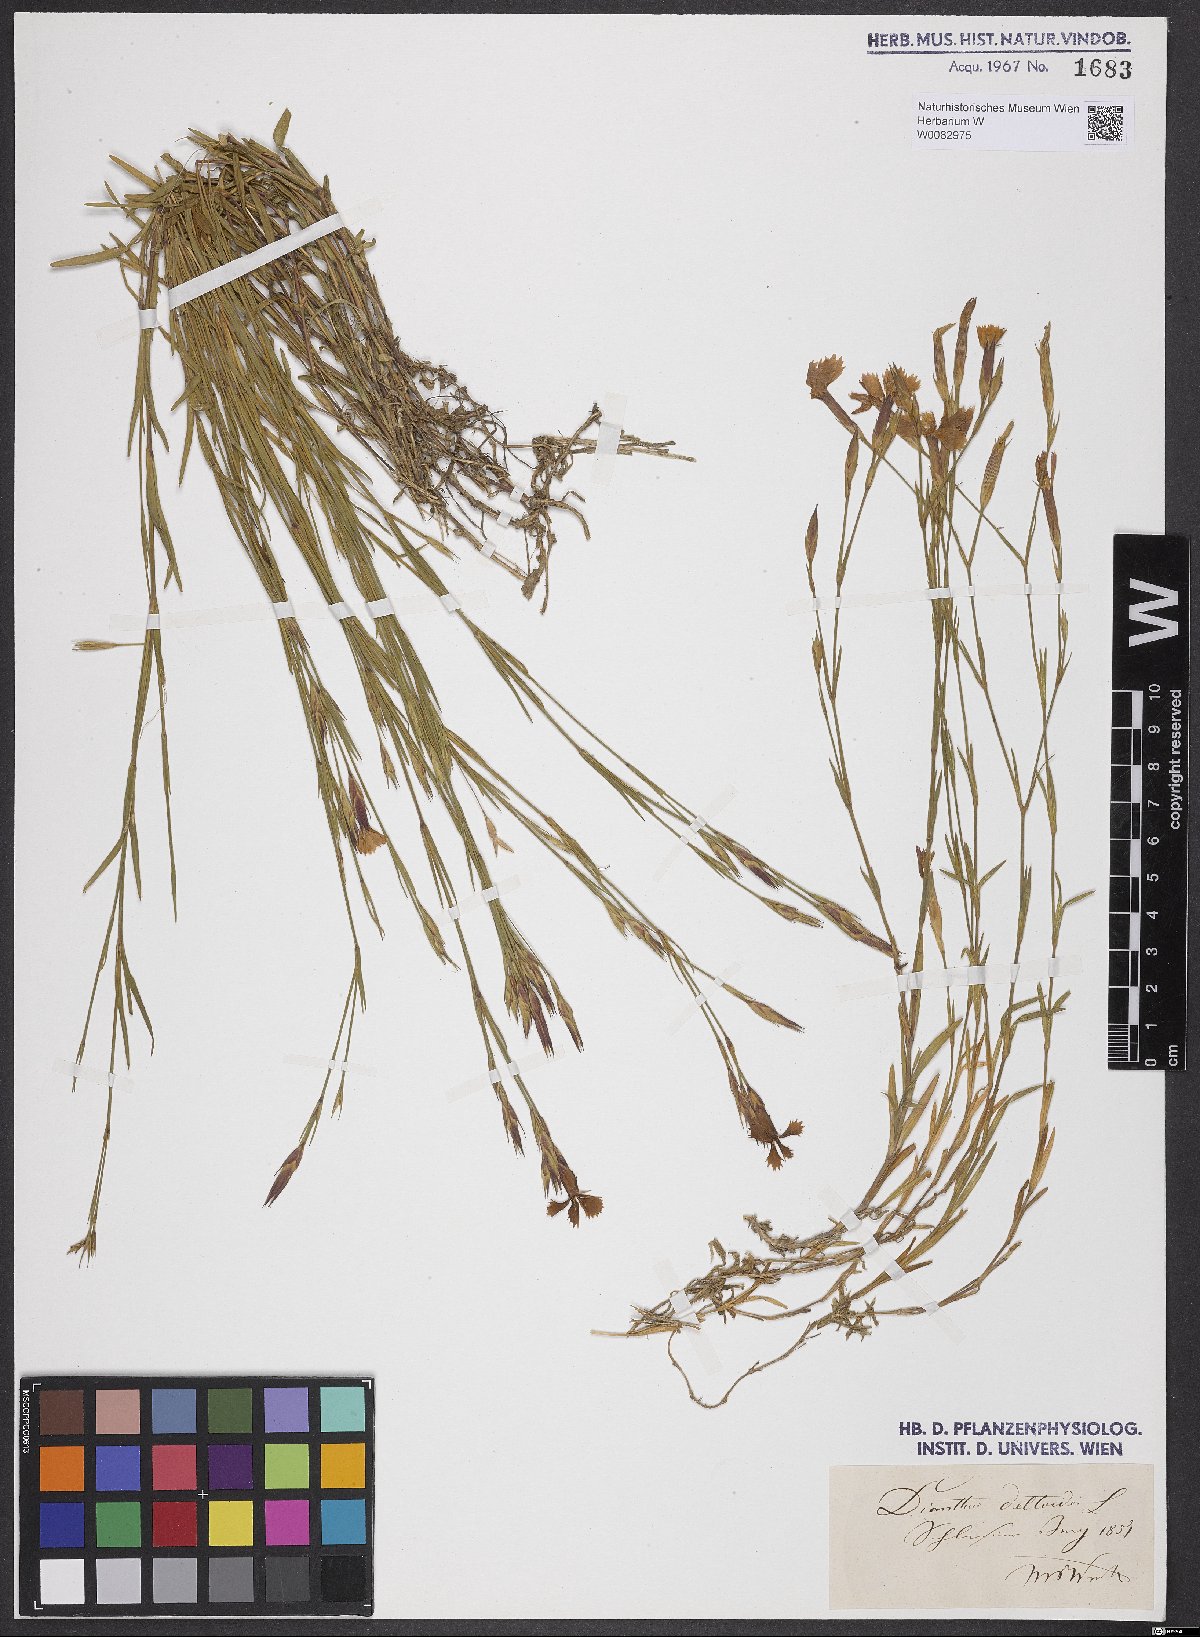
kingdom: Plantae
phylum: Tracheophyta
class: Magnoliopsida
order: Caryophyllales
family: Caryophyllaceae
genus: Dianthus
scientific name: Dianthus deltoides
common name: Maiden pink
